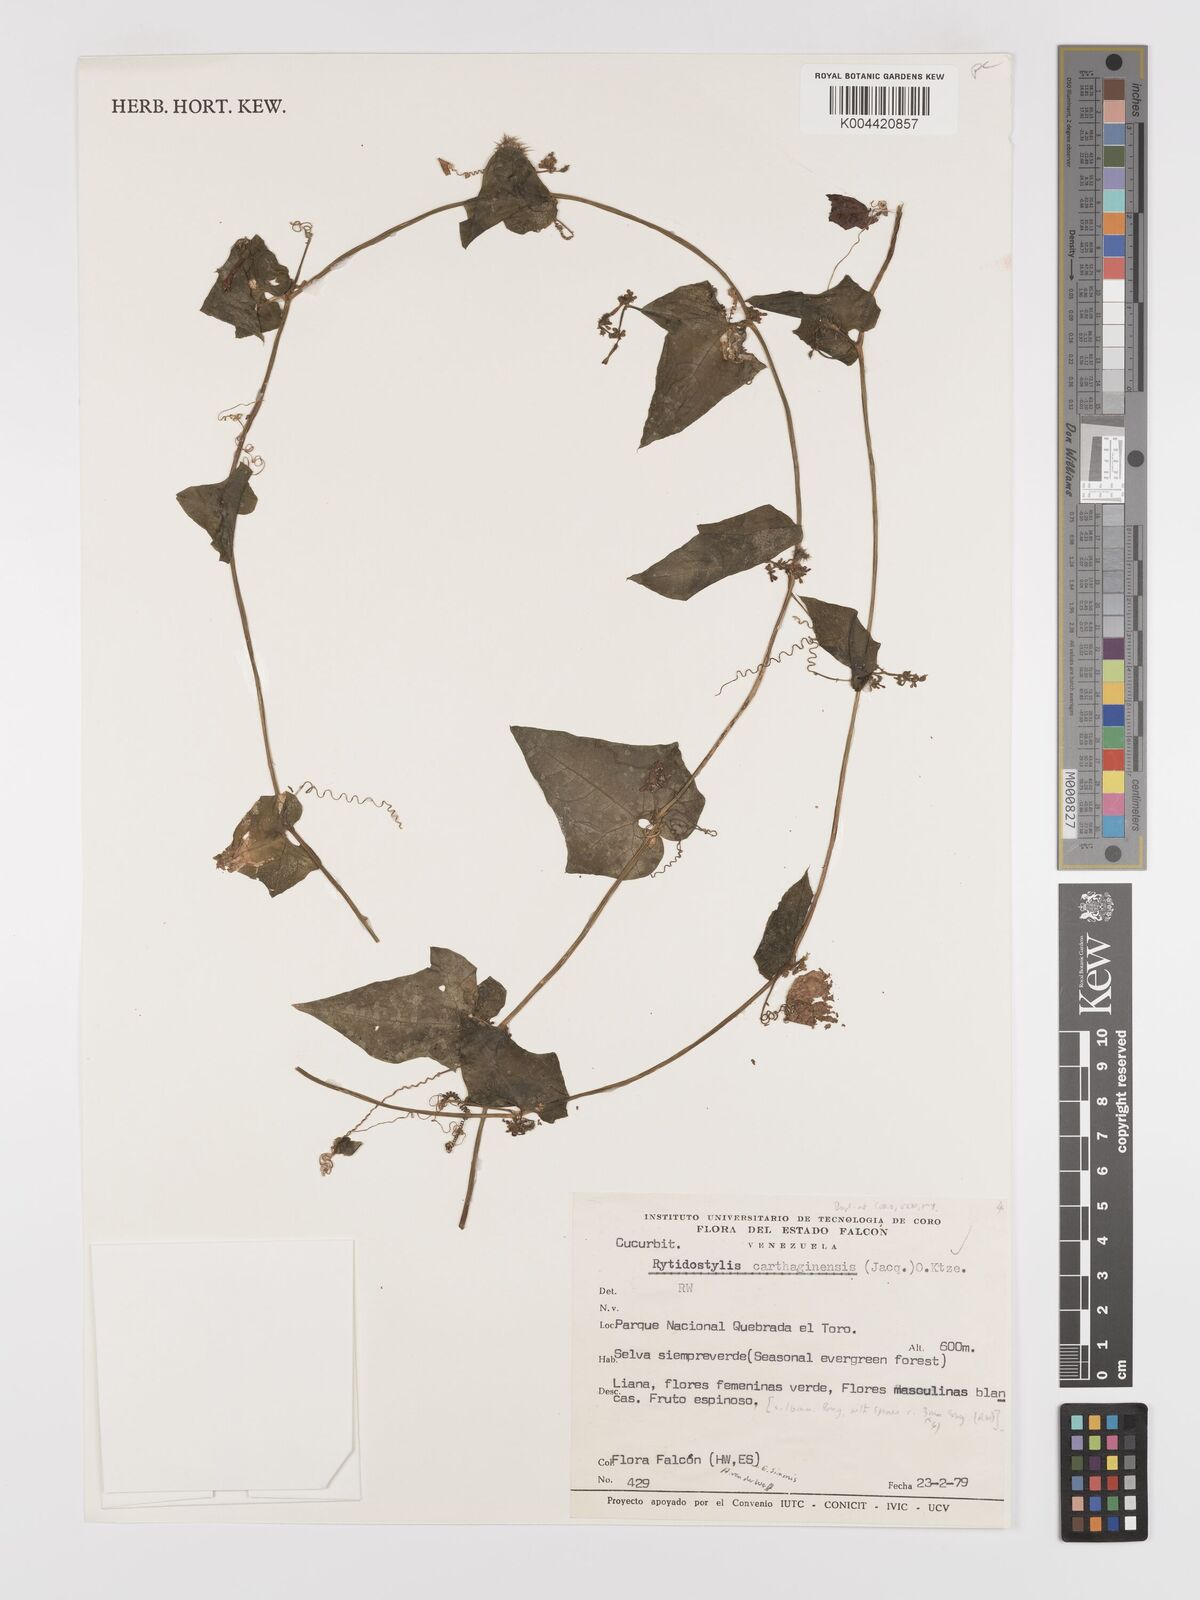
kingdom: Plantae
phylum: Tracheophyta
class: Magnoliopsida
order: Cucurbitales
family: Cucurbitaceae
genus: Cyclanthera
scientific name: Cyclanthera carthagenensis
